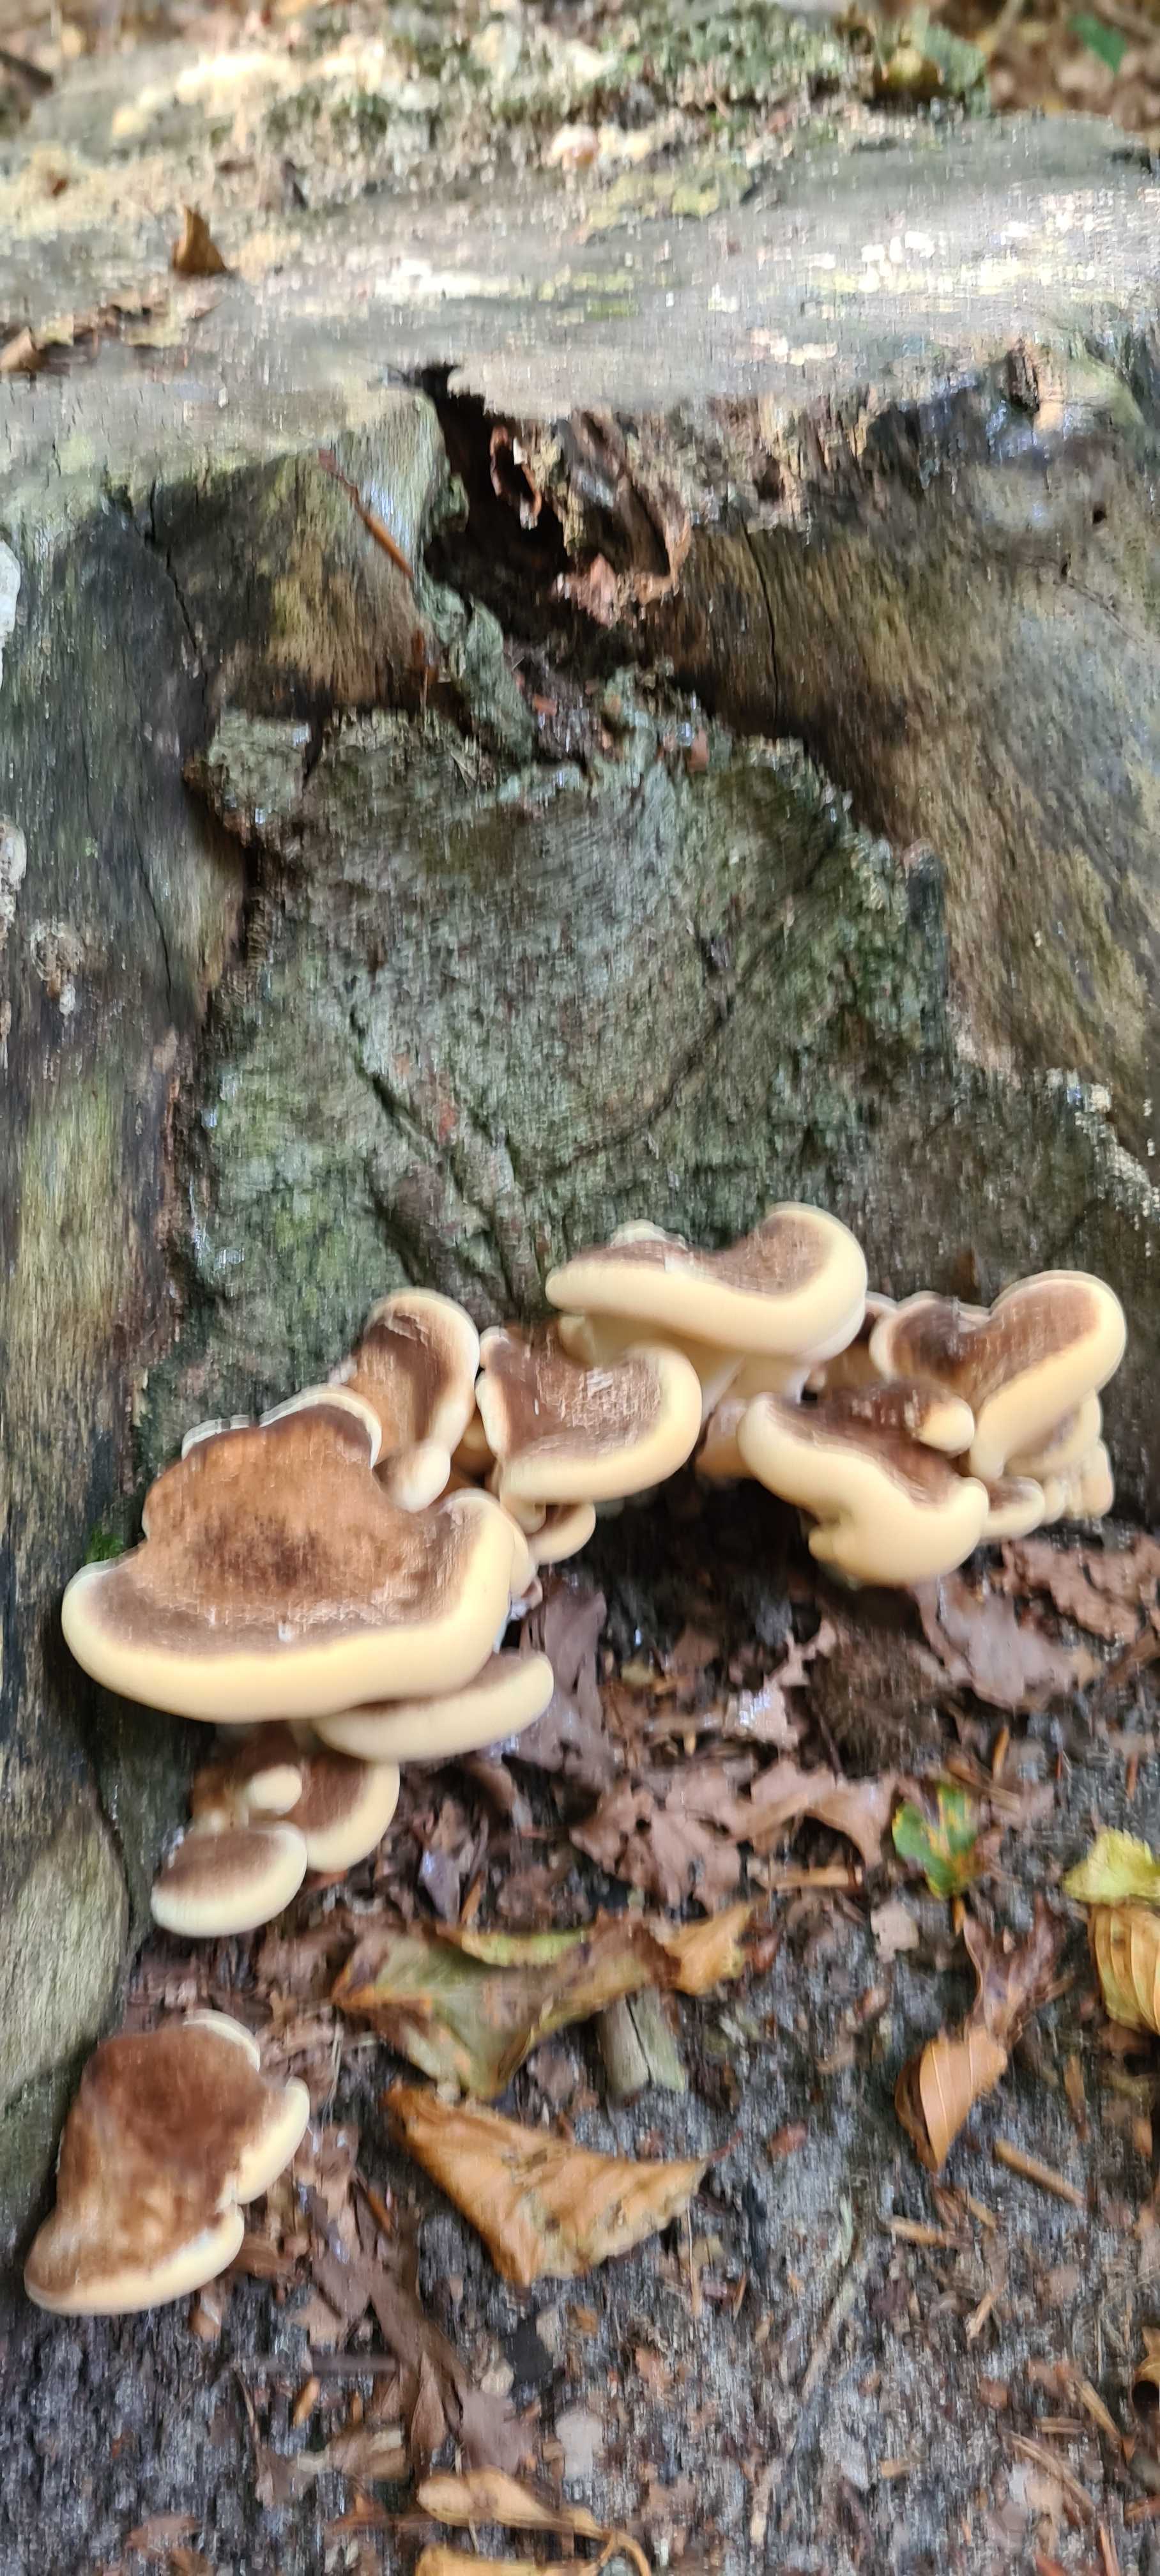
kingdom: Fungi
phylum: Basidiomycota
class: Agaricomycetes
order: Polyporales
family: Meripilaceae
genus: Meripilus
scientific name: Meripilus giganteus
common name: kæmpeporesvamp
